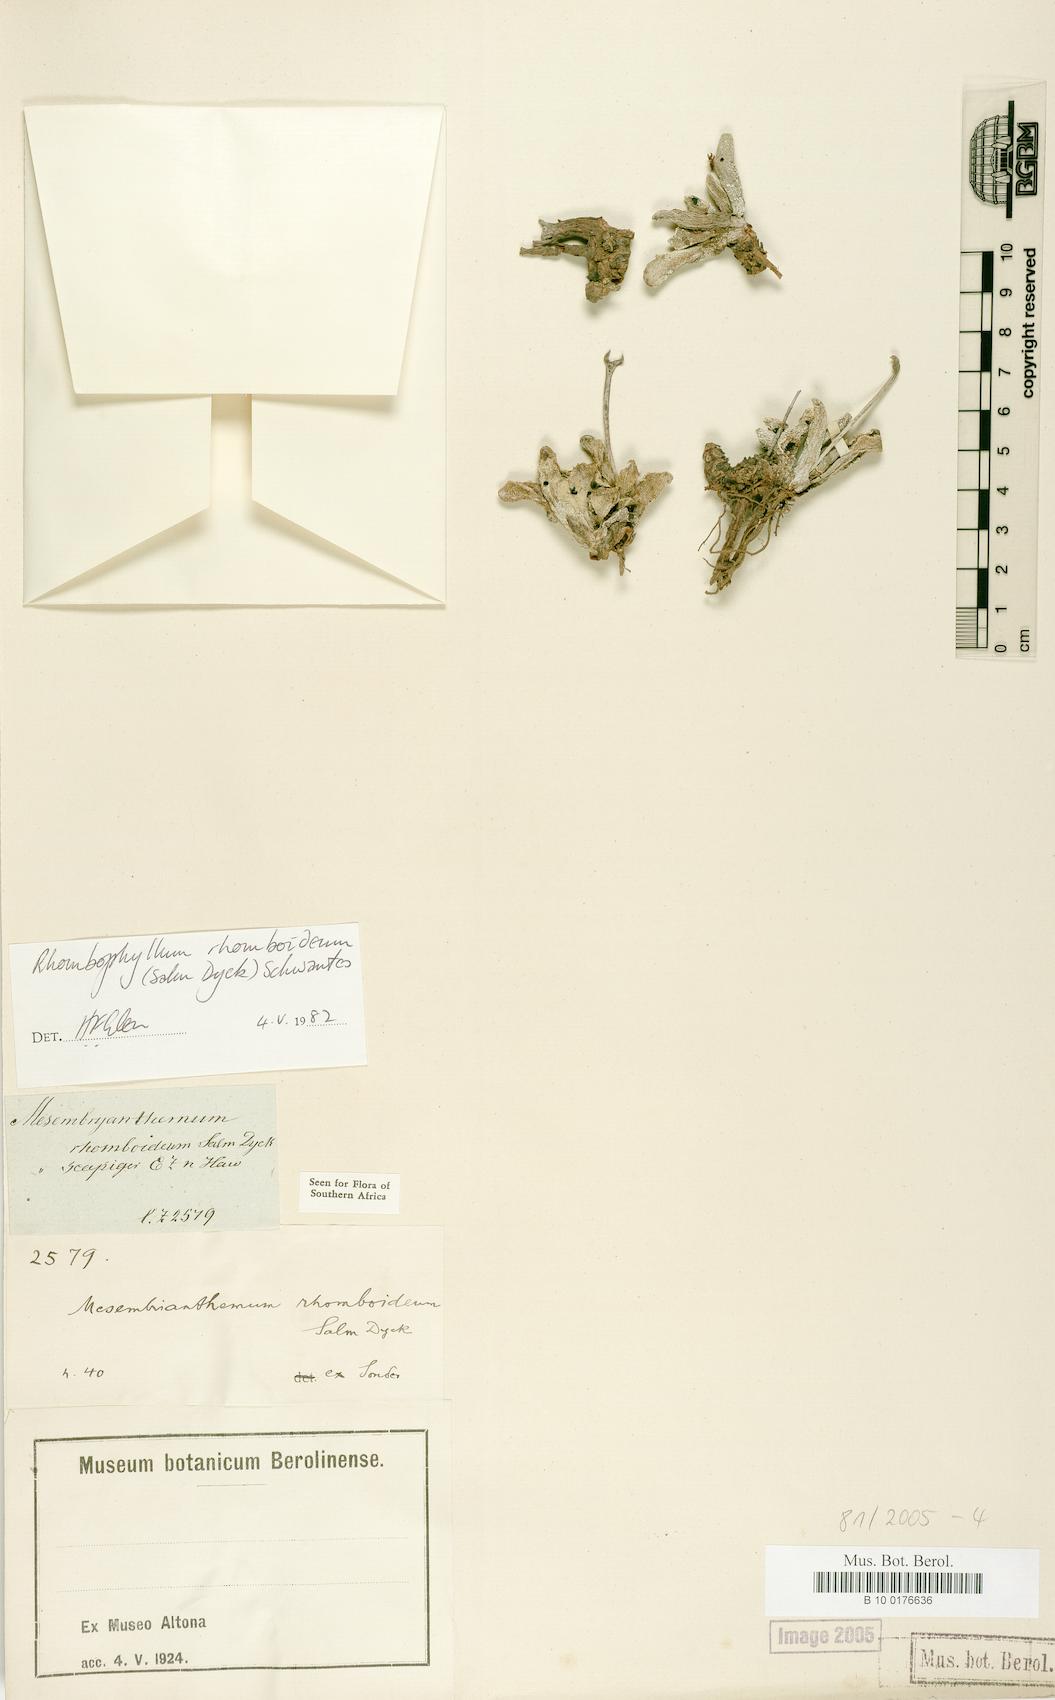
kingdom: Plantae
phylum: Tracheophyta
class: Magnoliopsida
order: Caryophyllales
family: Aizoaceae
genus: Dracophilus
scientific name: Dracophilus Rhombophyllum rhomboideum
